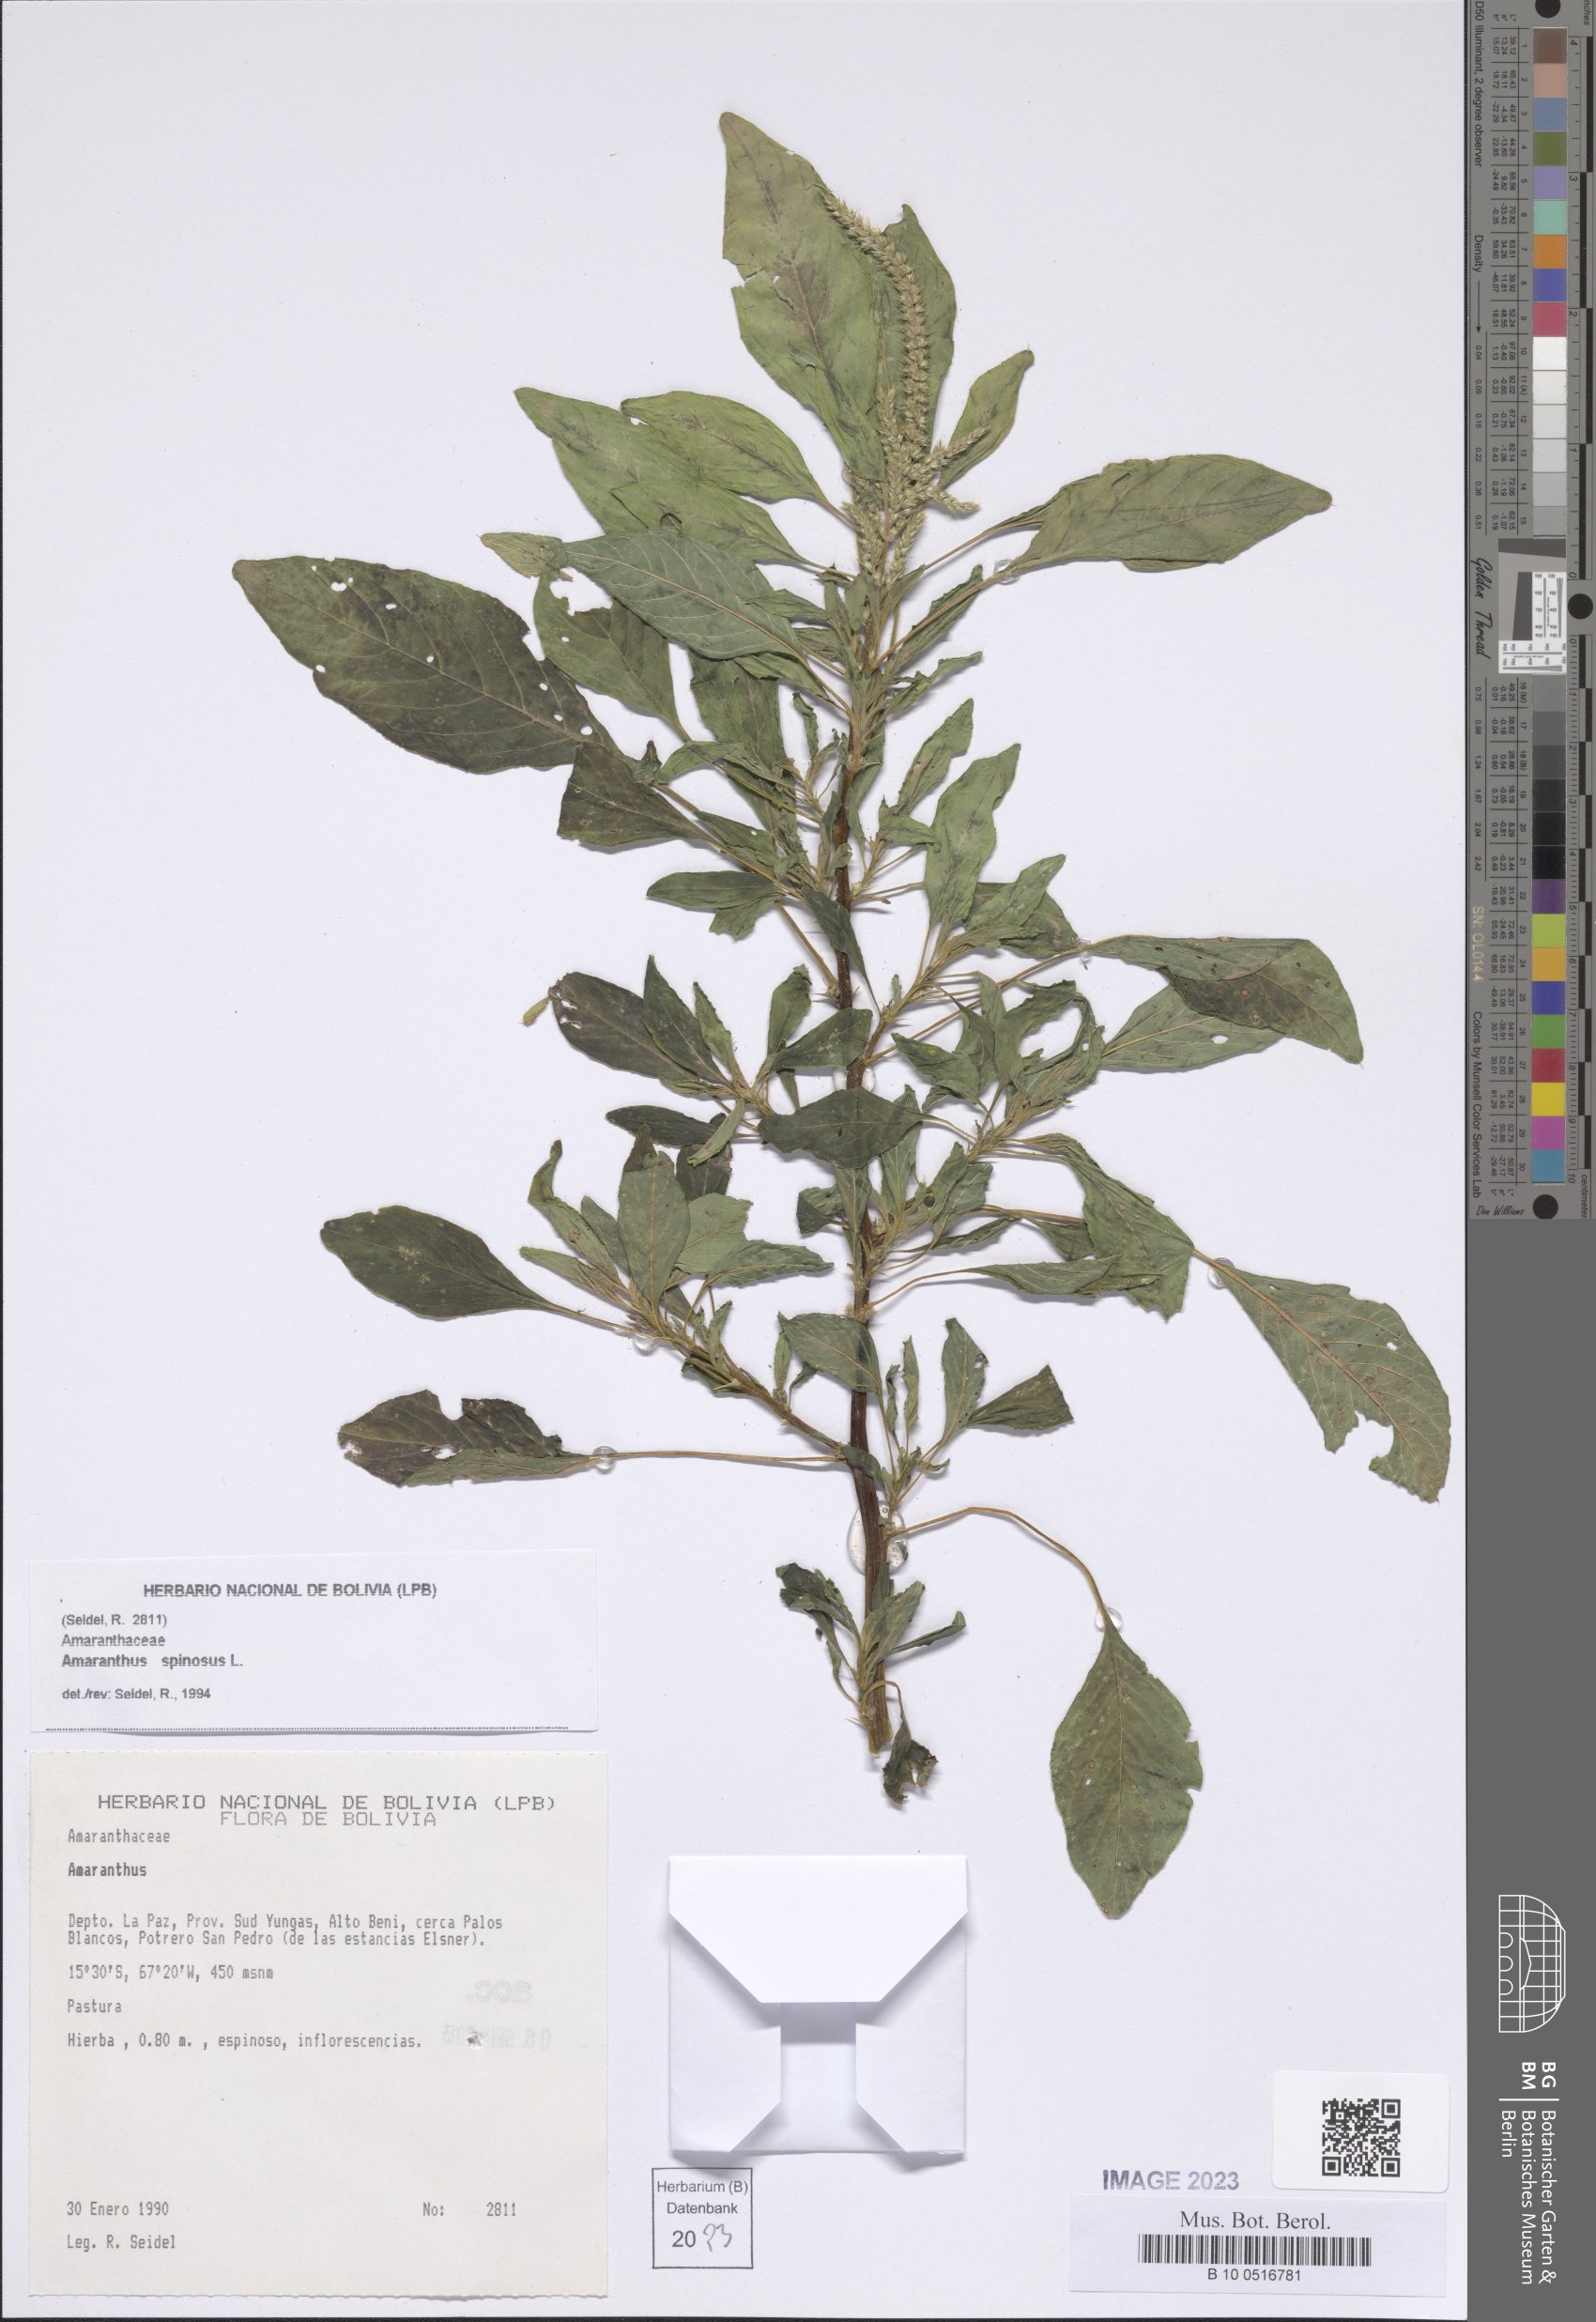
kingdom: Plantae
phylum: Tracheophyta
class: Magnoliopsida
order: Caryophyllales
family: Amaranthaceae
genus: Amaranthus
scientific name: Amaranthus spinosus
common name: Spiny amaranth
